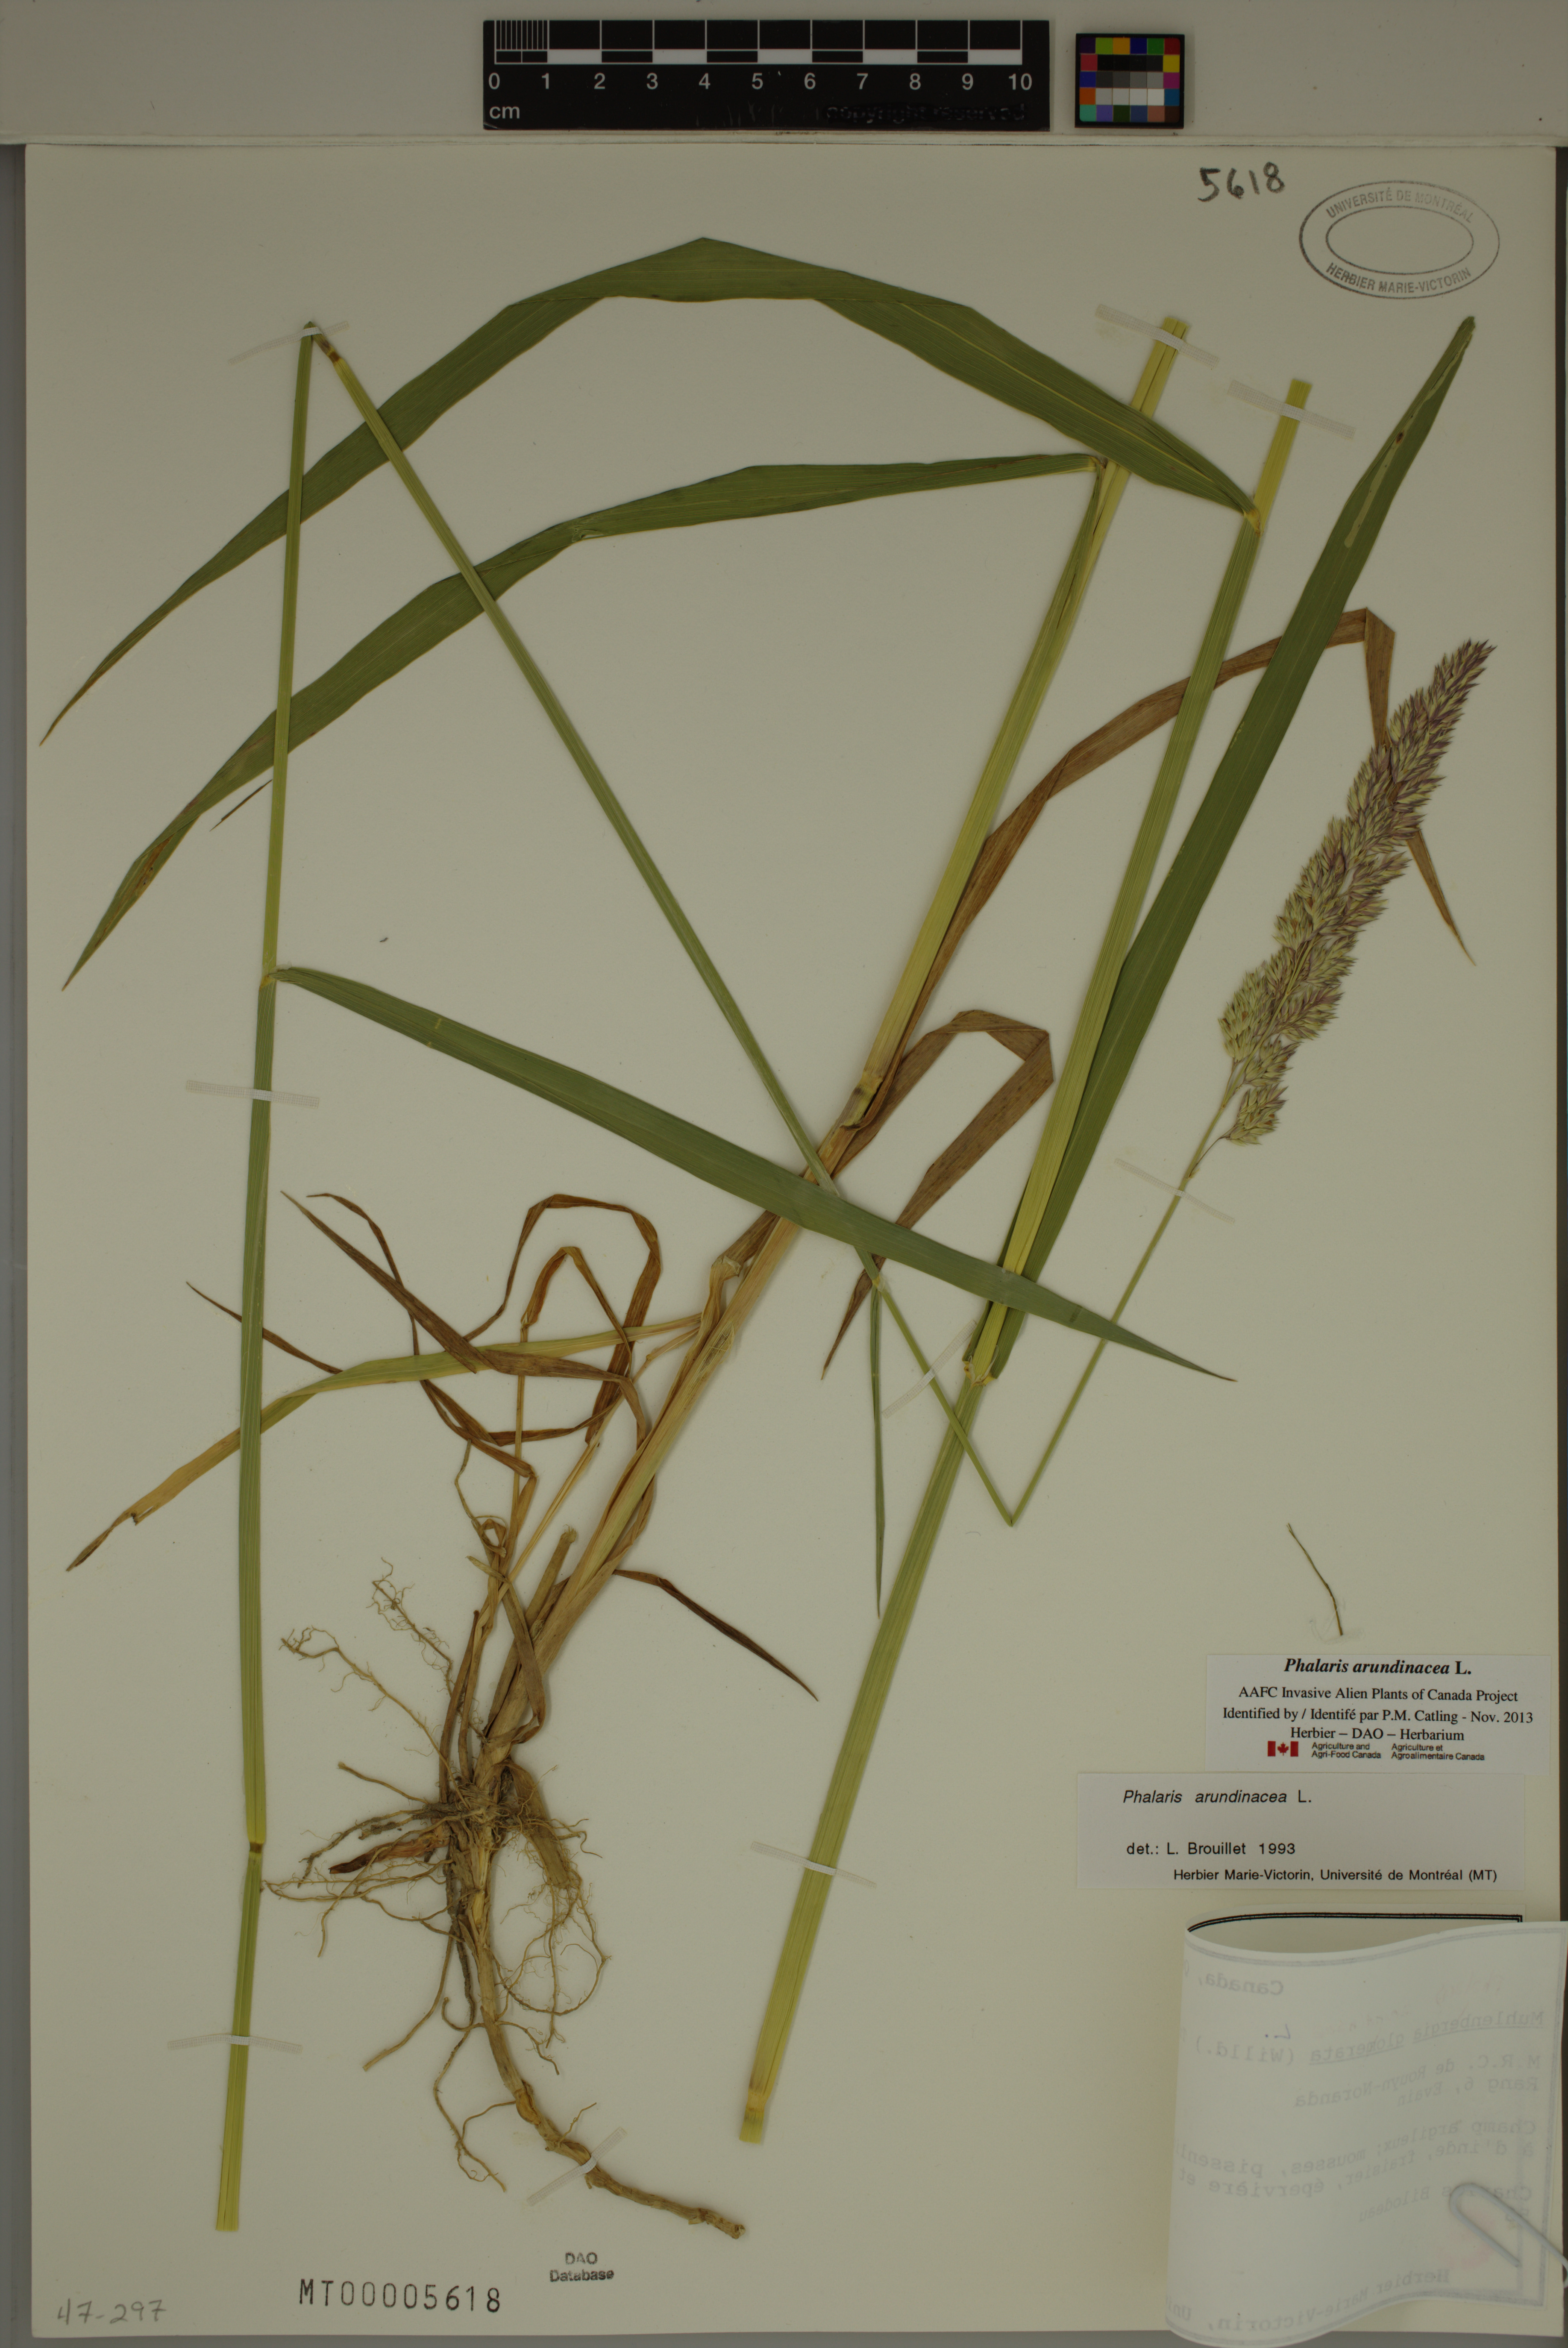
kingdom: Plantae
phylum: Tracheophyta
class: Liliopsida
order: Poales
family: Poaceae
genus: Phalaris
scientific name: Phalaris arundinacea
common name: Reed canary-grass
